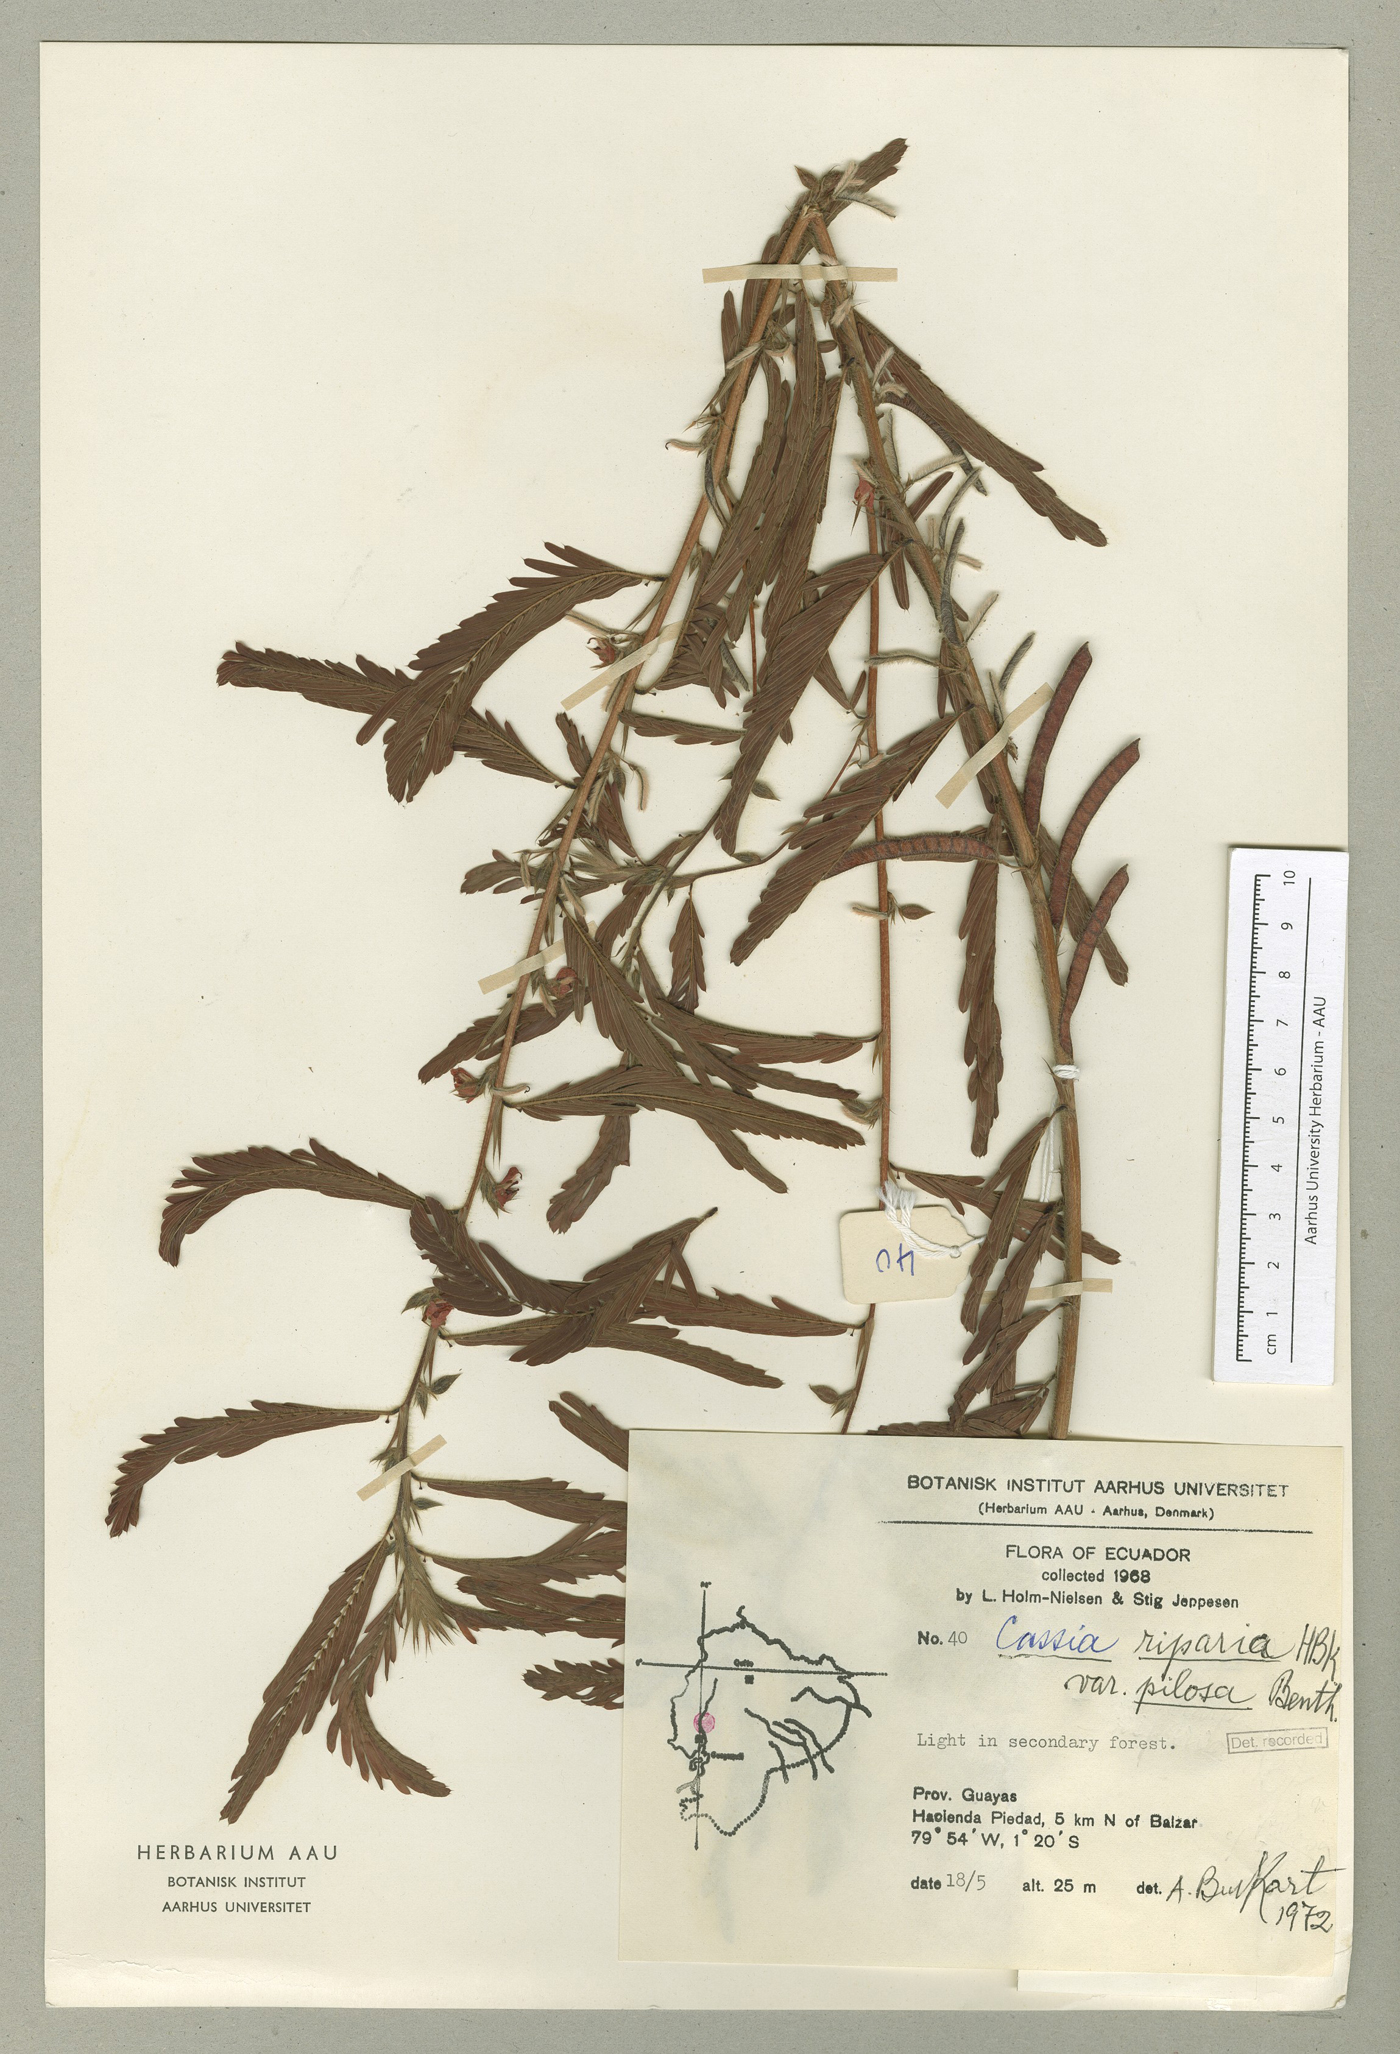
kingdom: Plantae
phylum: Tracheophyta
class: Magnoliopsida
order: Fabales
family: Fabaceae
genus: Chamaecrista
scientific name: Chamaecrista nictitans
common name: Sensitive cassia
